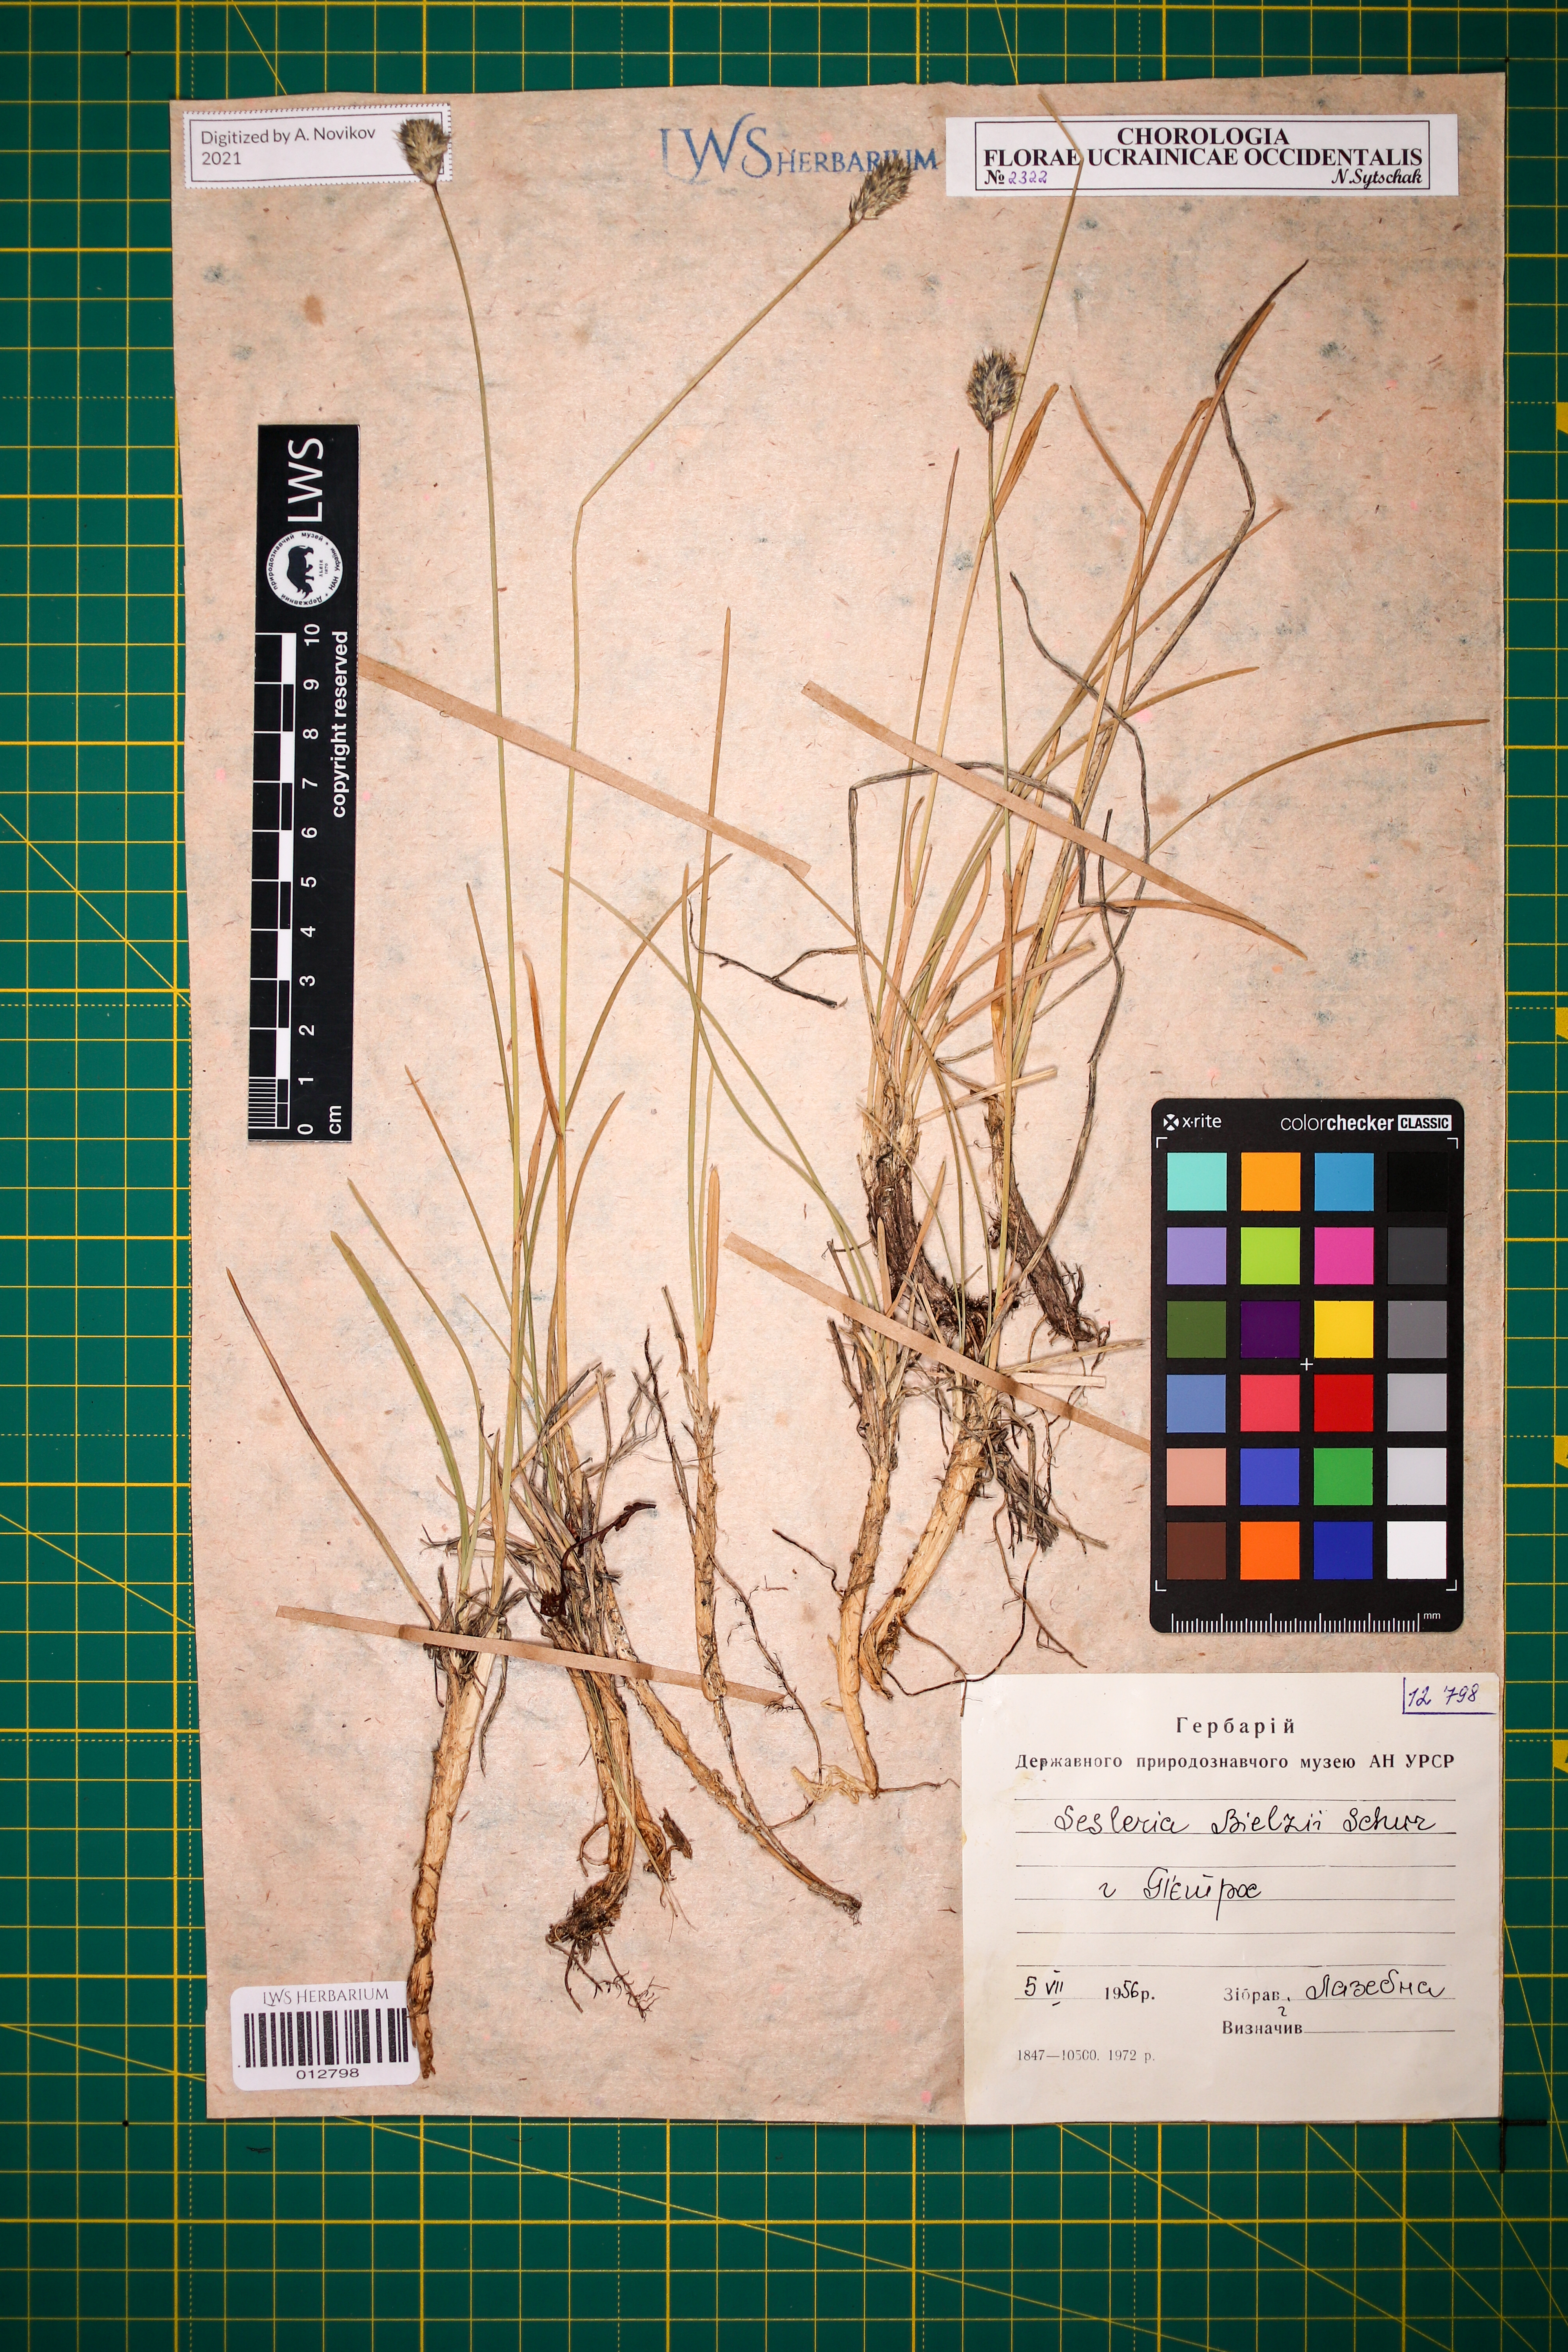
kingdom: Plantae
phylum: Tracheophyta
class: Liliopsida
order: Poales
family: Poaceae
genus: Sesleria
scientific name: Sesleria bielzii
